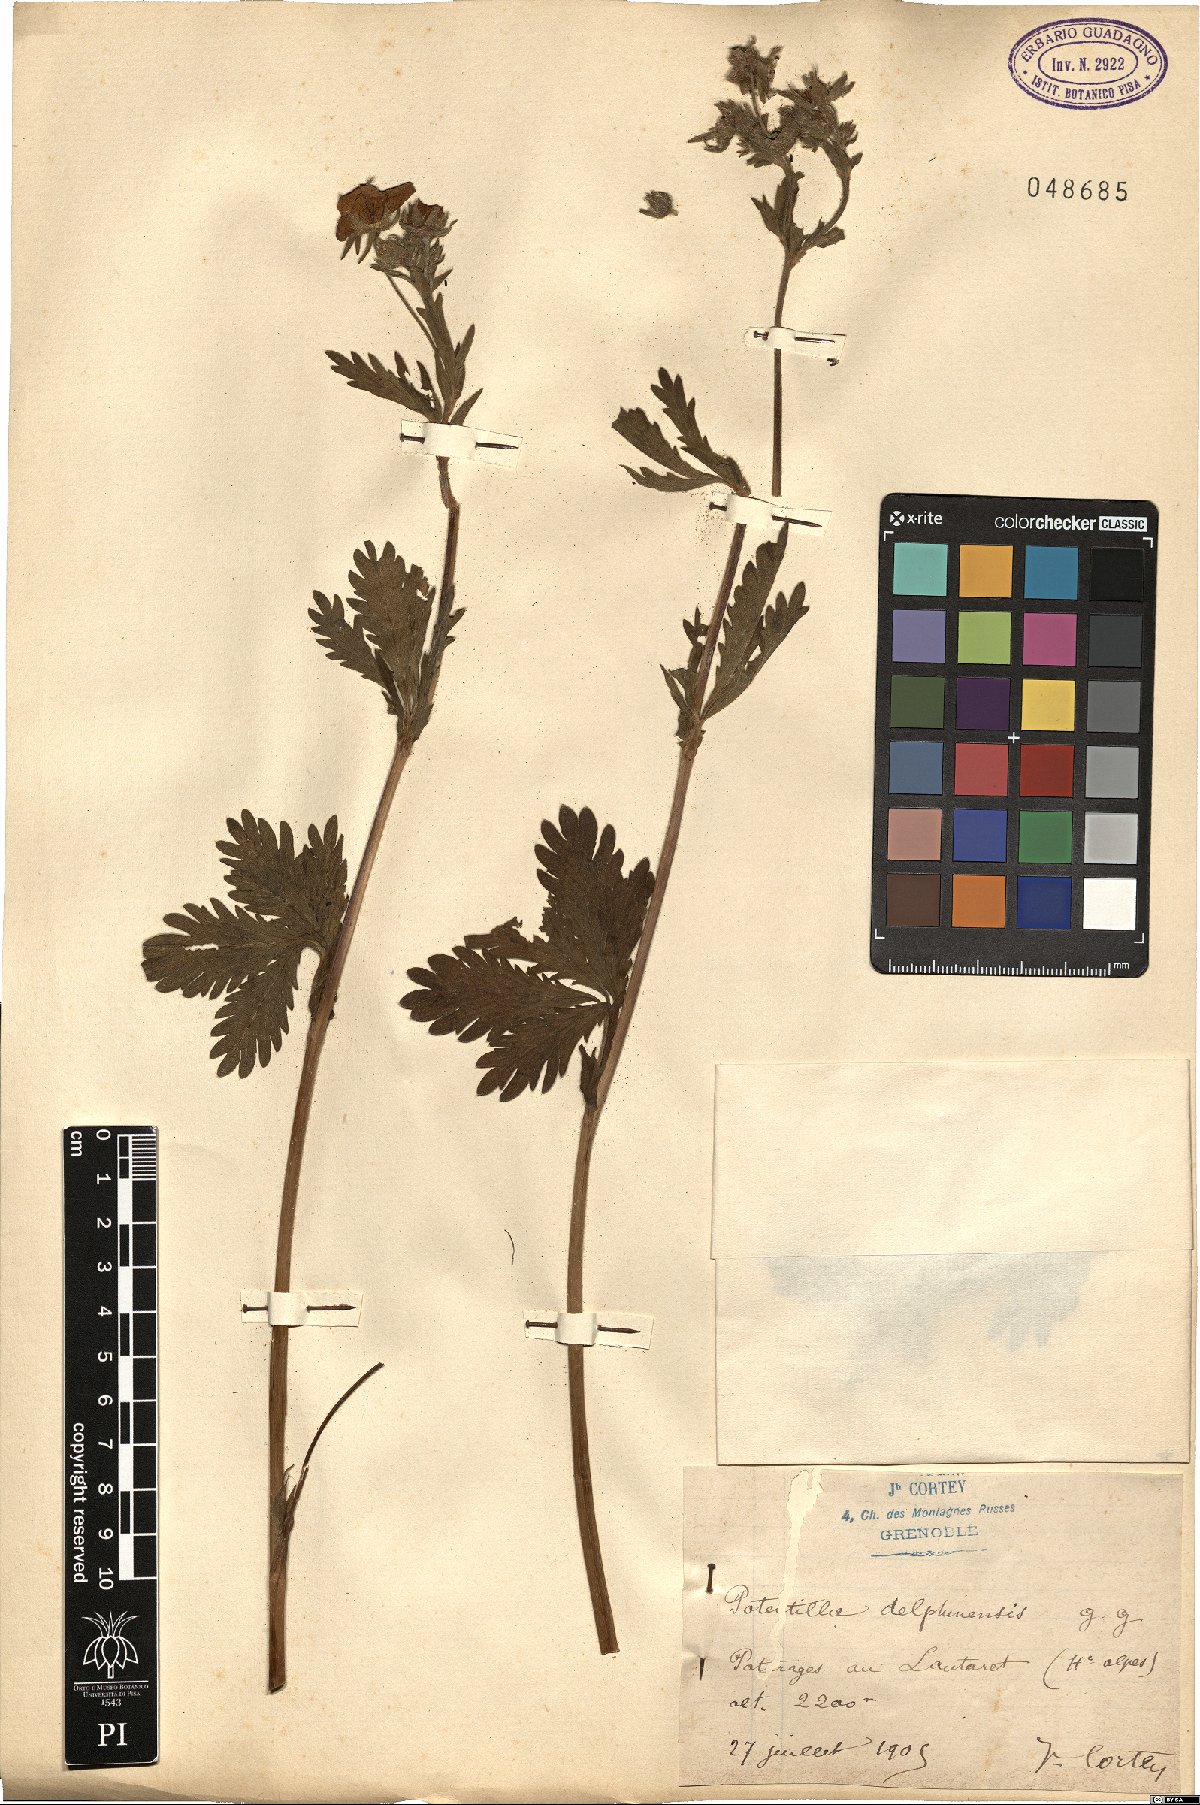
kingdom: Plantae
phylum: Tracheophyta
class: Magnoliopsida
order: Rosales
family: Rosaceae
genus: Potentilla
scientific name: Potentilla delphinensis
